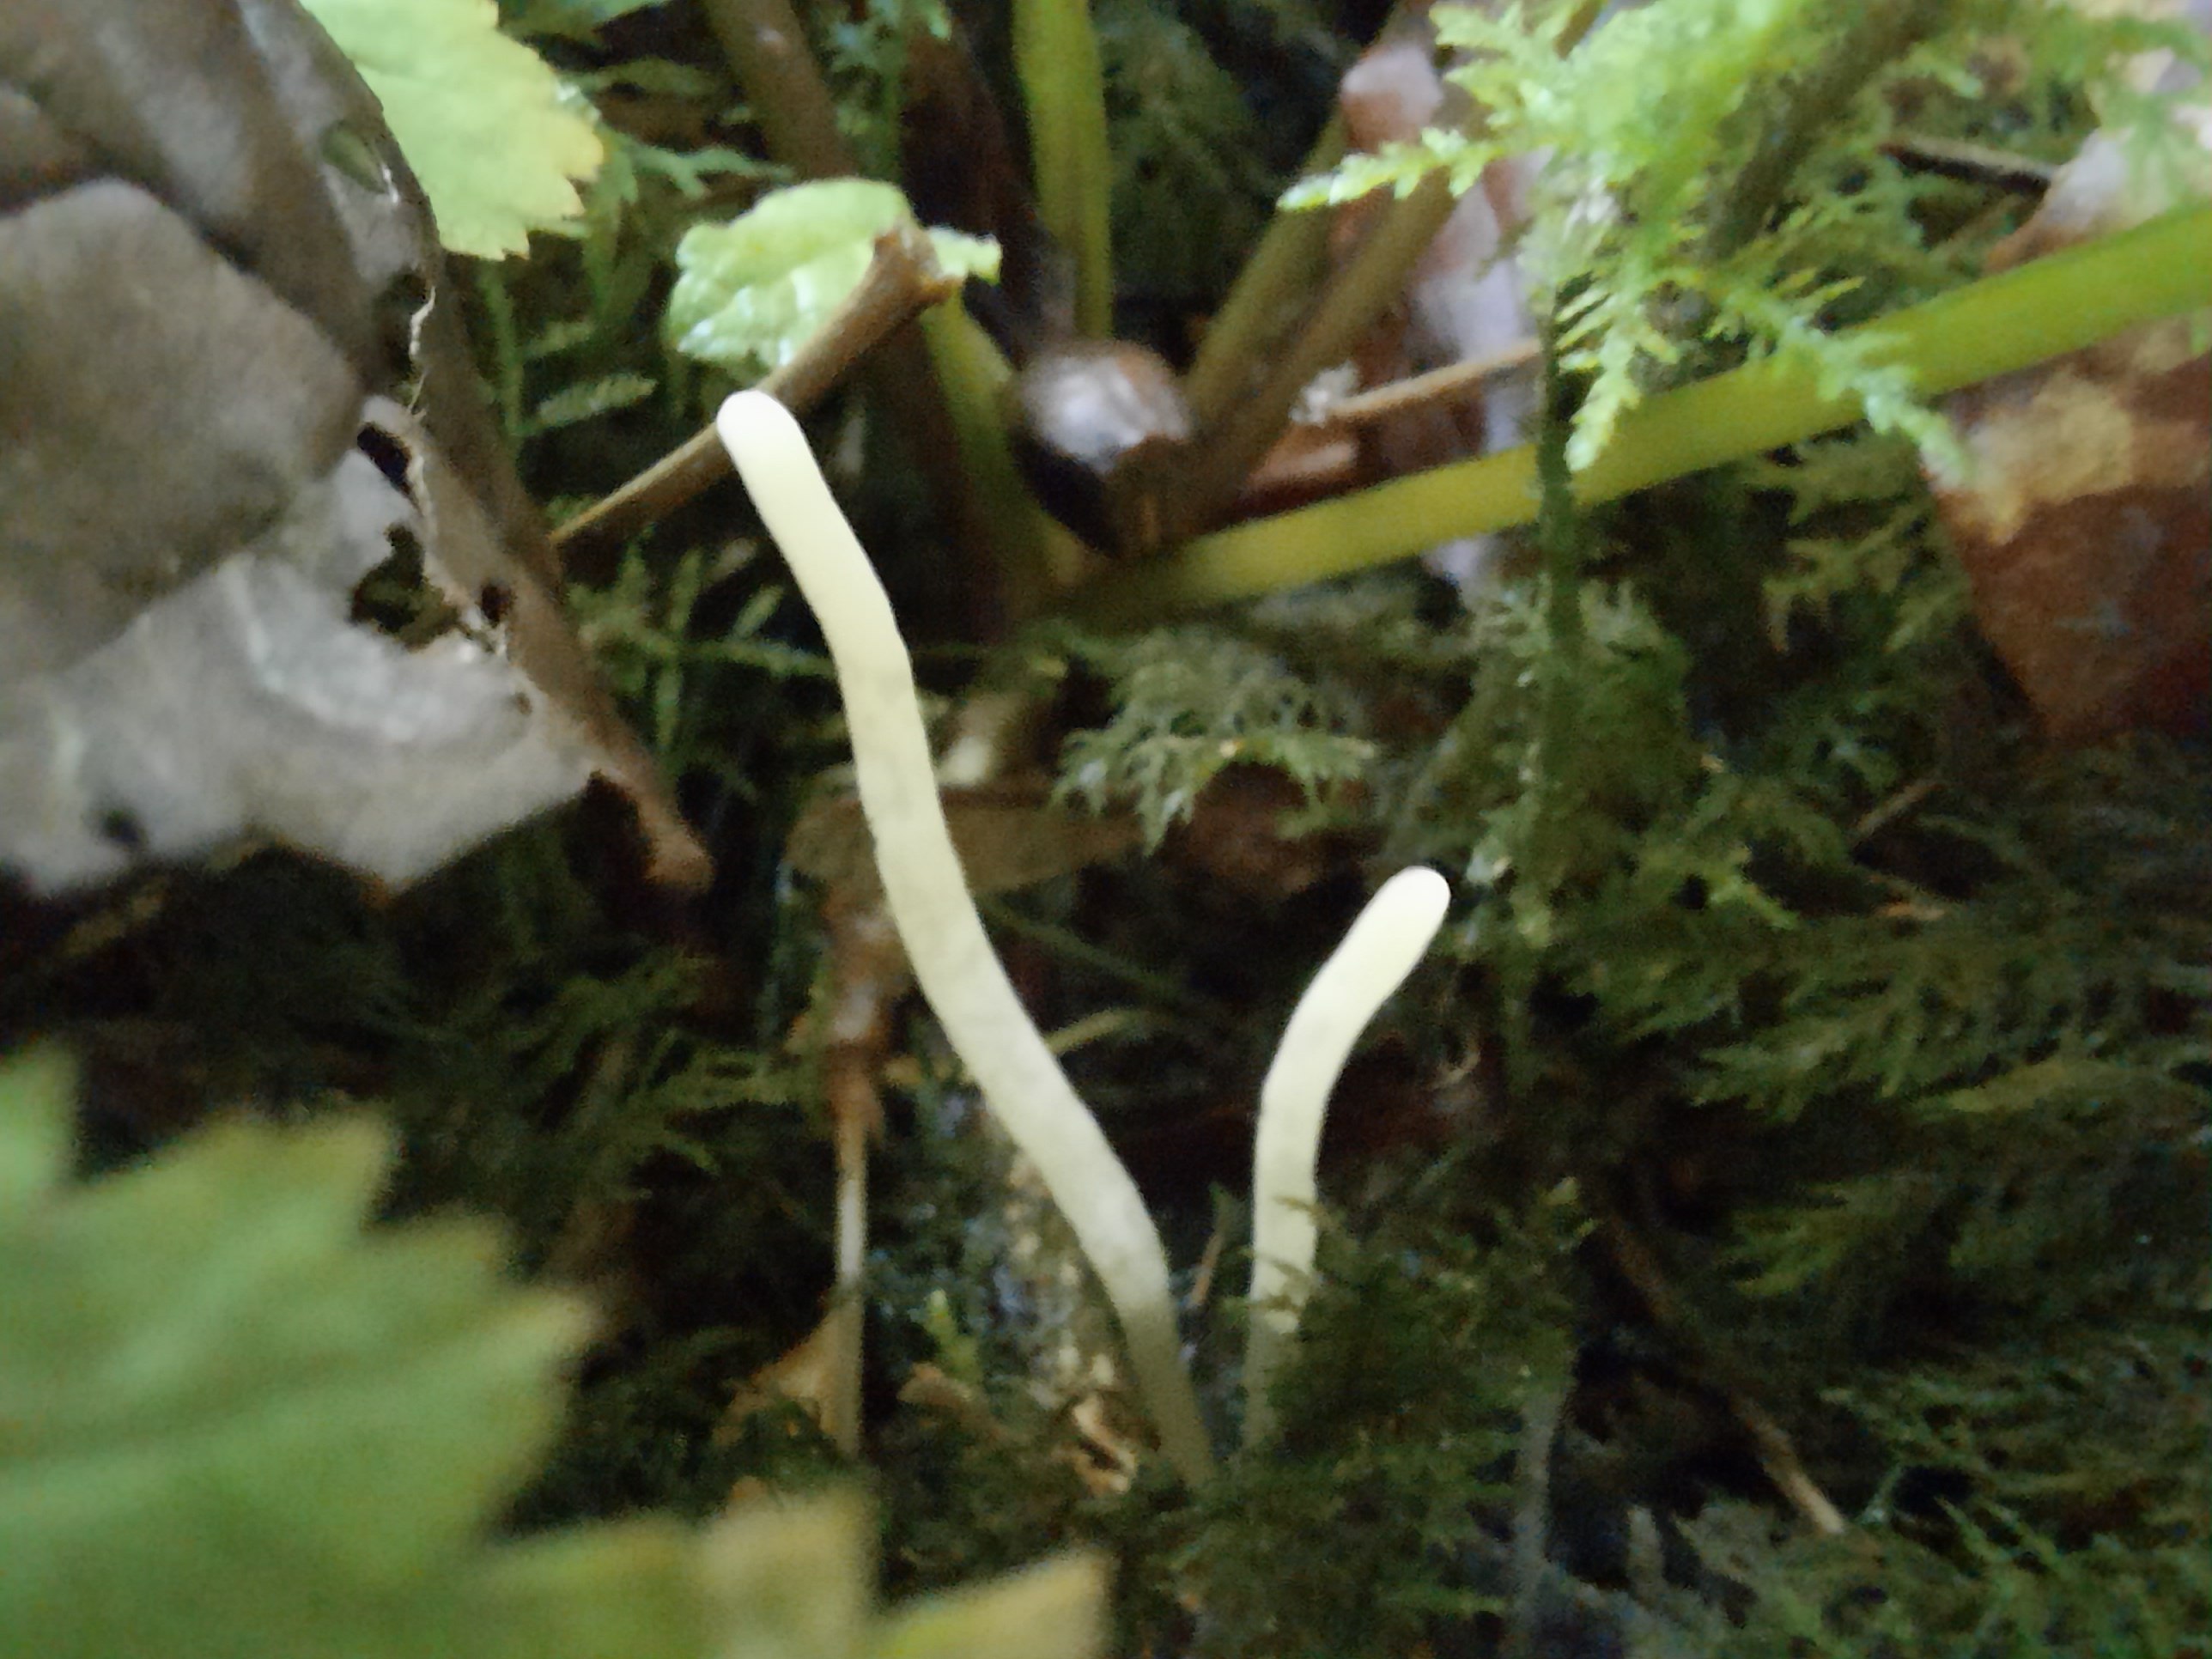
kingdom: Fungi
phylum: Basidiomycota
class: Agaricomycetes
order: Agaricales
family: Clavariaceae
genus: Clavaria
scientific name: Clavaria falcata
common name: hvid køllesvamp
